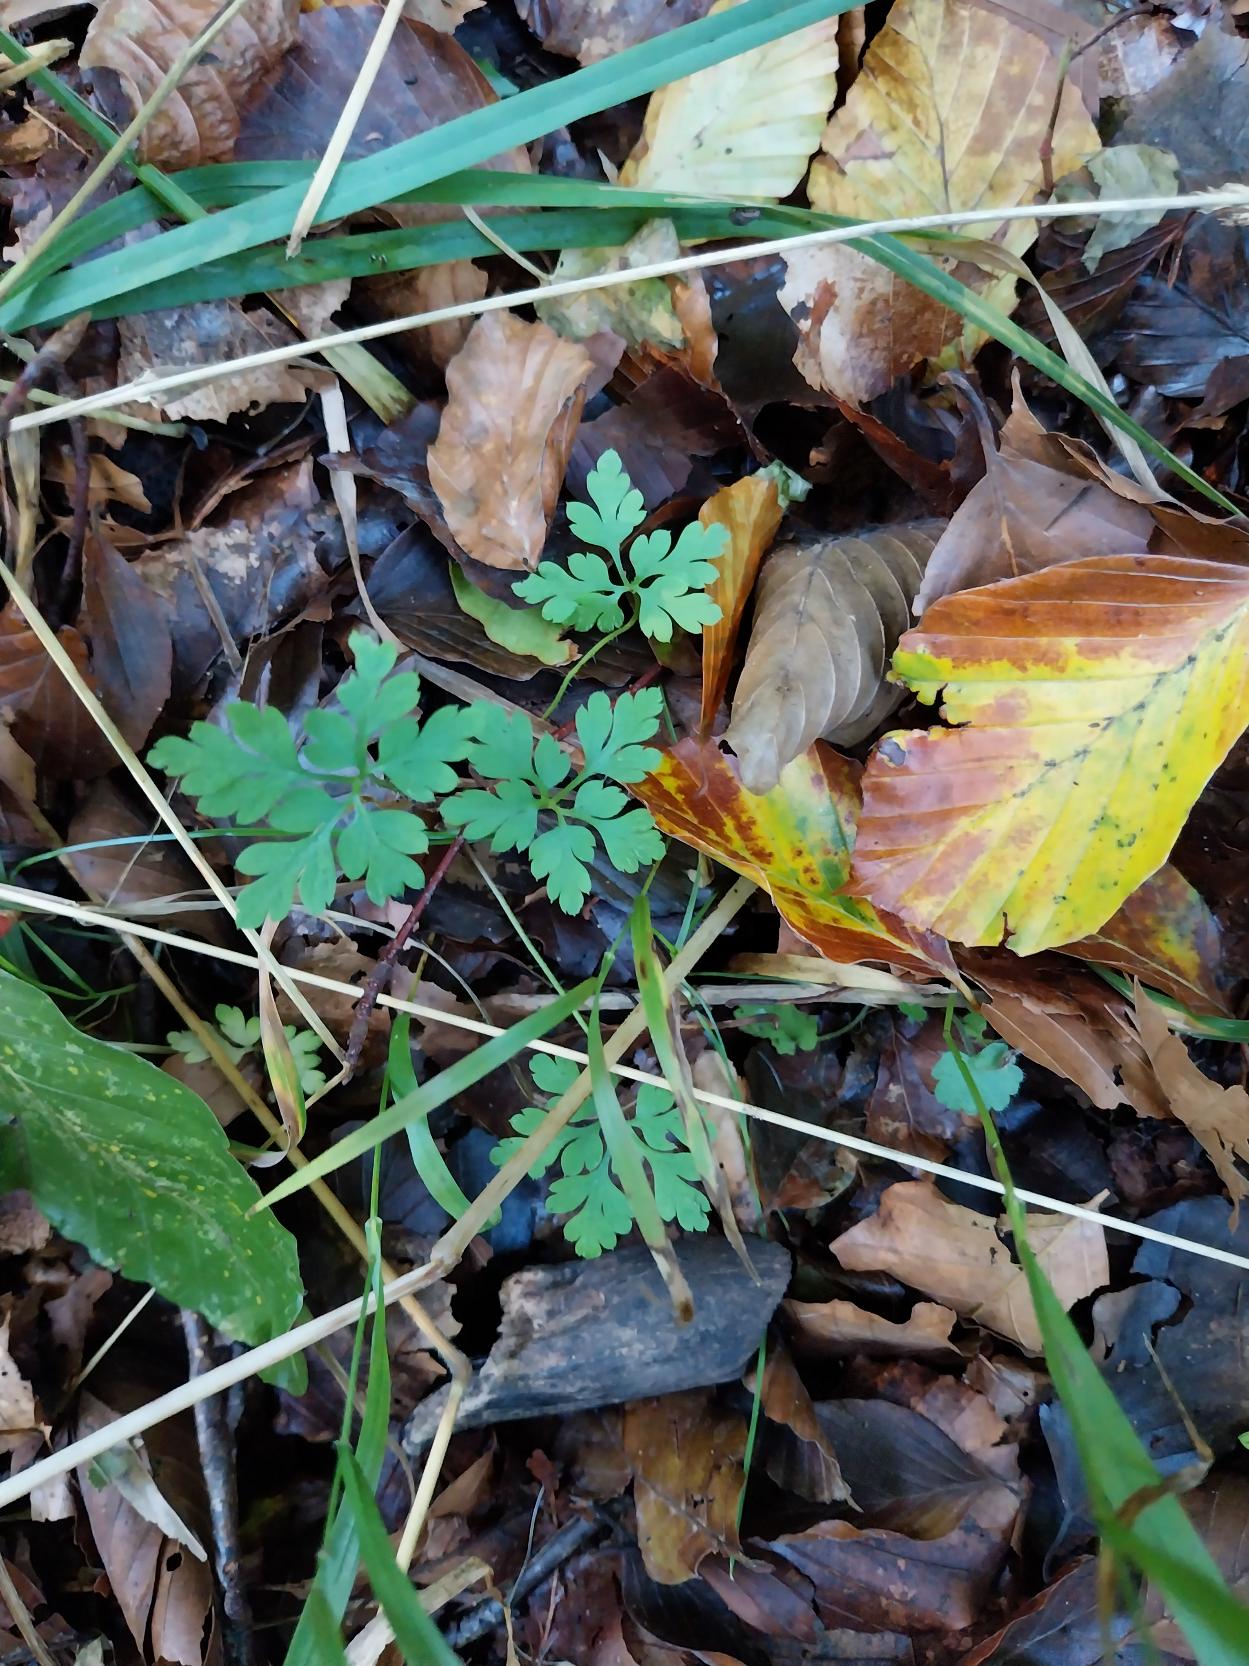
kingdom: Plantae
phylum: Tracheophyta
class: Magnoliopsida
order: Geraniales
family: Geraniaceae
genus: Geranium
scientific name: Geranium robertianum
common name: Stinkende storkenæb
